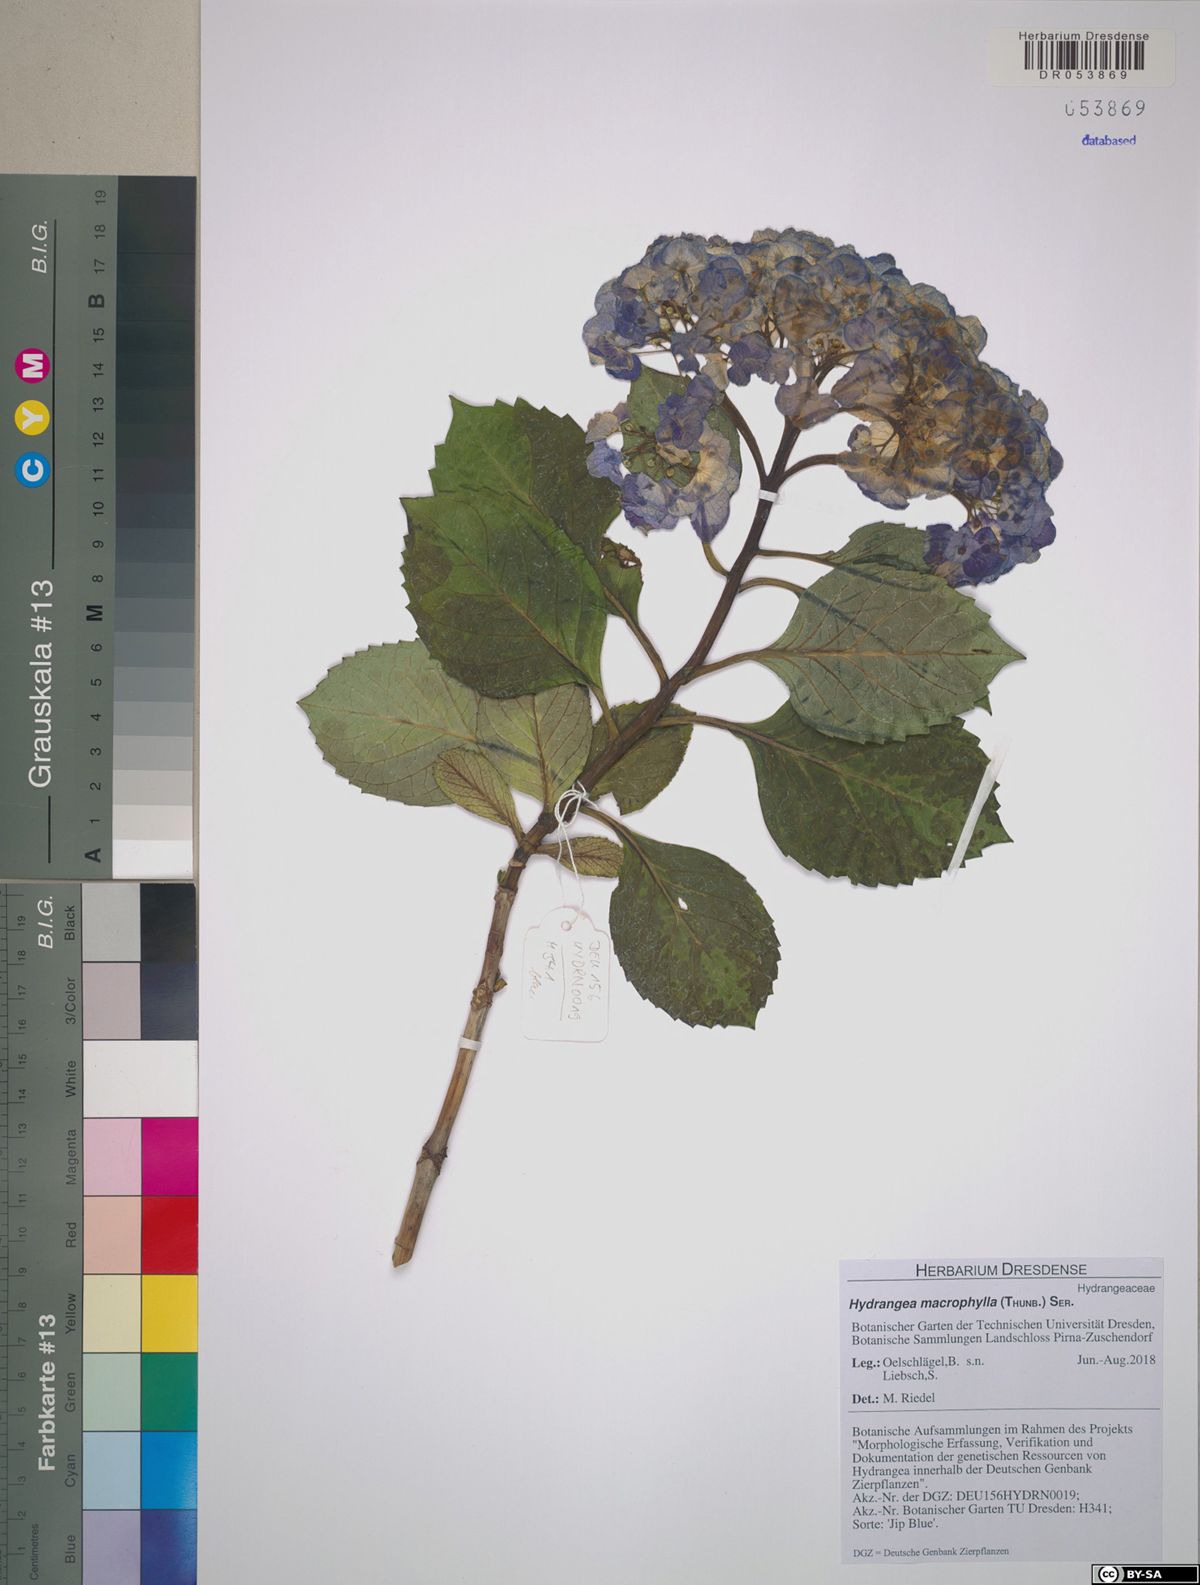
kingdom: Plantae
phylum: Tracheophyta
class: Magnoliopsida
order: Cornales
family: Hydrangeaceae
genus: Hydrangea
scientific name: Hydrangea macrophylla
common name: Hydrangea
